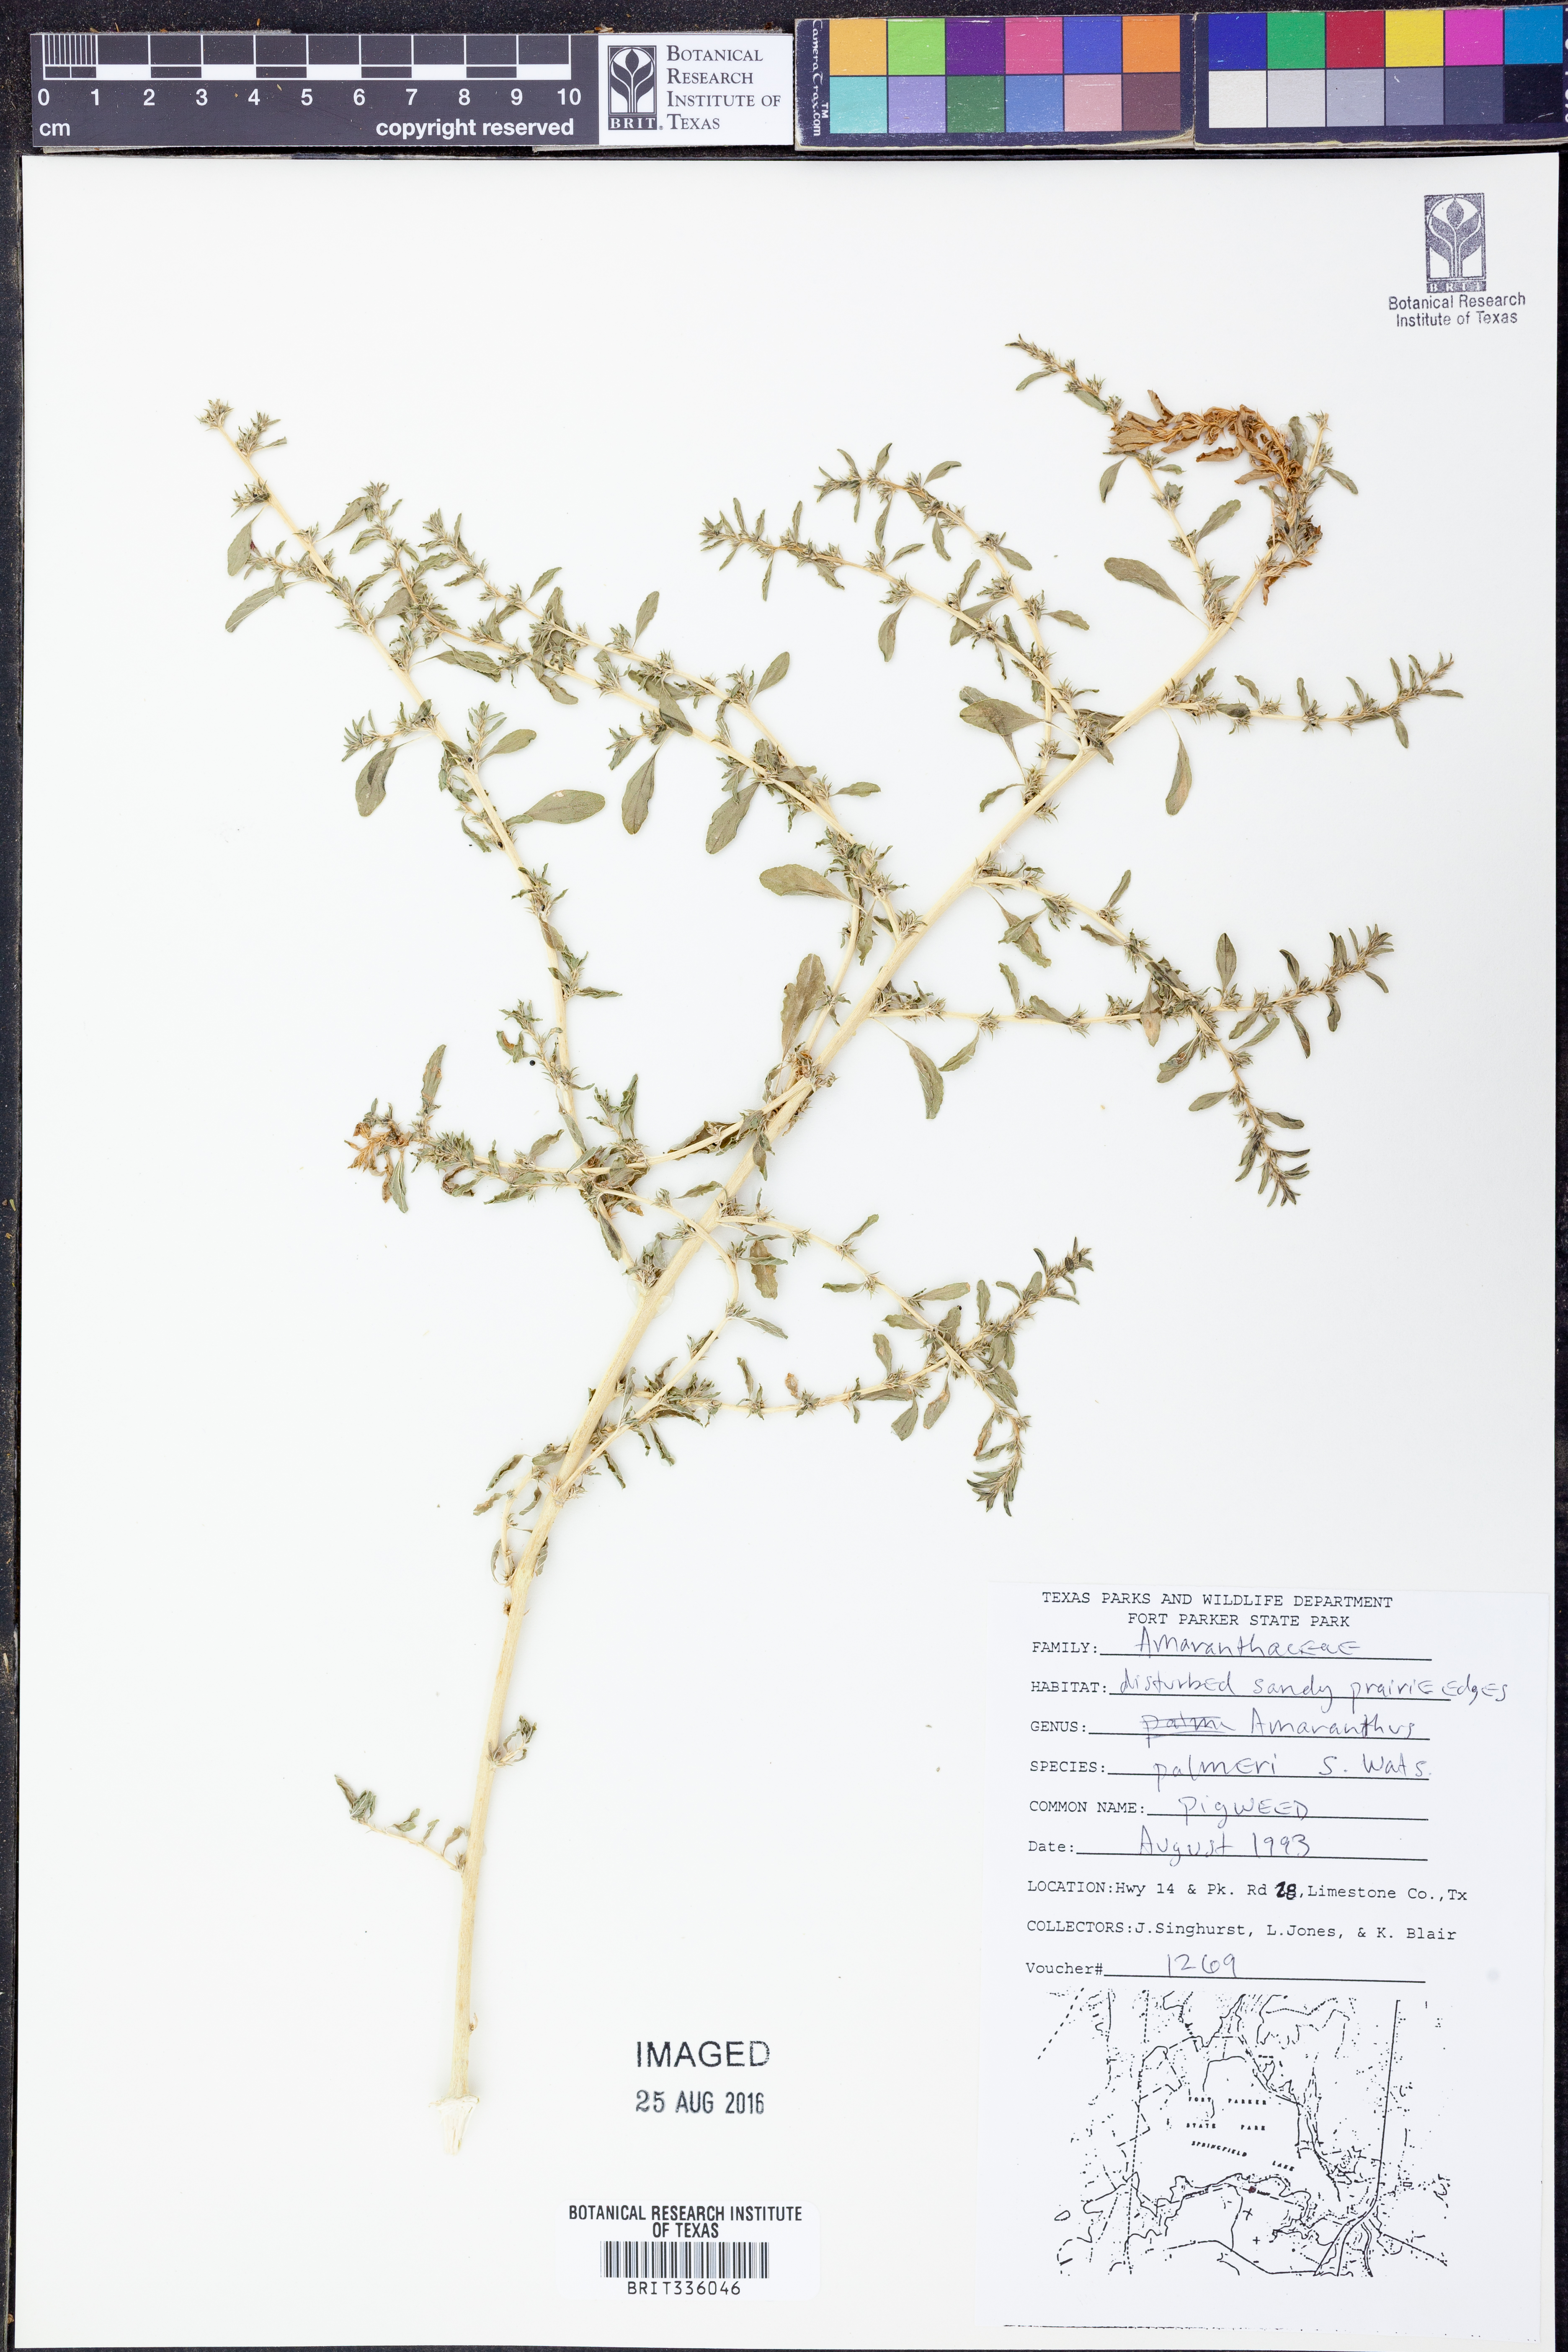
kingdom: Plantae
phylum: Tracheophyta
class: Magnoliopsida
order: Caryophyllales
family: Amaranthaceae
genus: Amaranthus
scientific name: Amaranthus palmeri
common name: Dioecious amaranth
